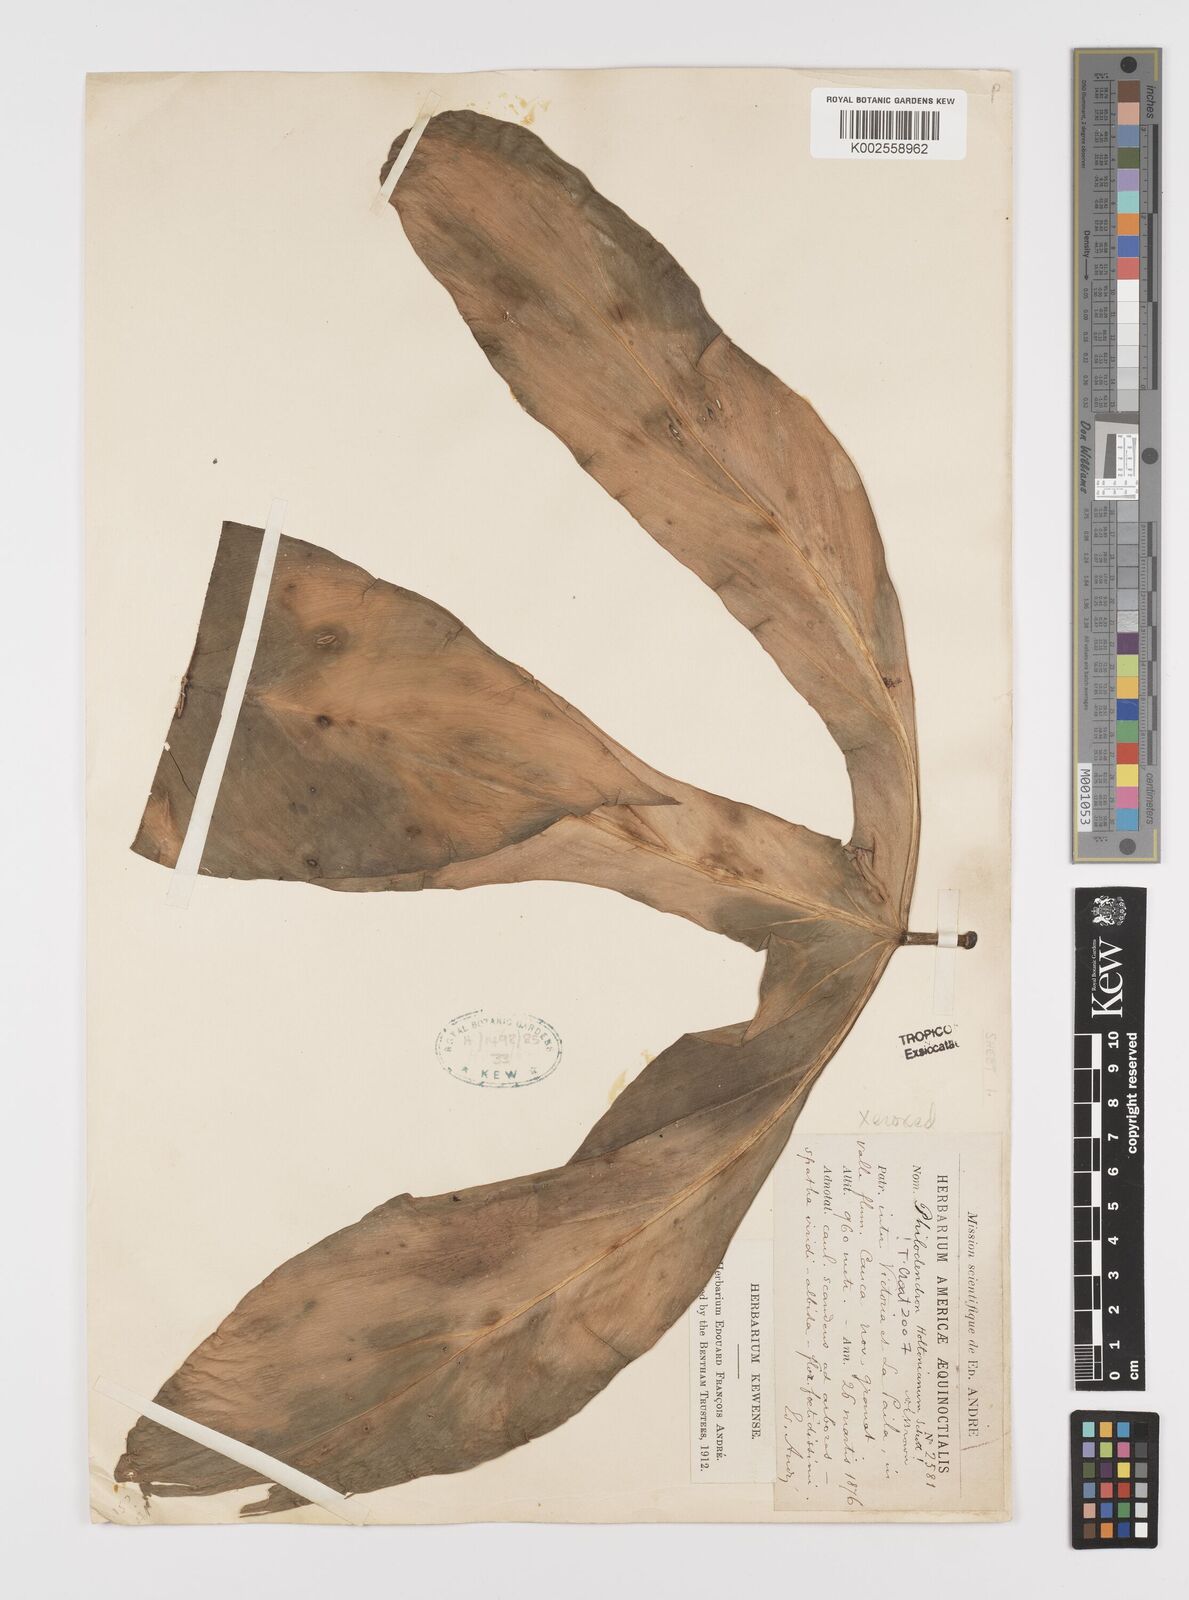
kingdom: Plantae
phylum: Tracheophyta
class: Liliopsida
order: Alismatales
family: Araceae
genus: Philodendron
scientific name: Philodendron tripartitum
